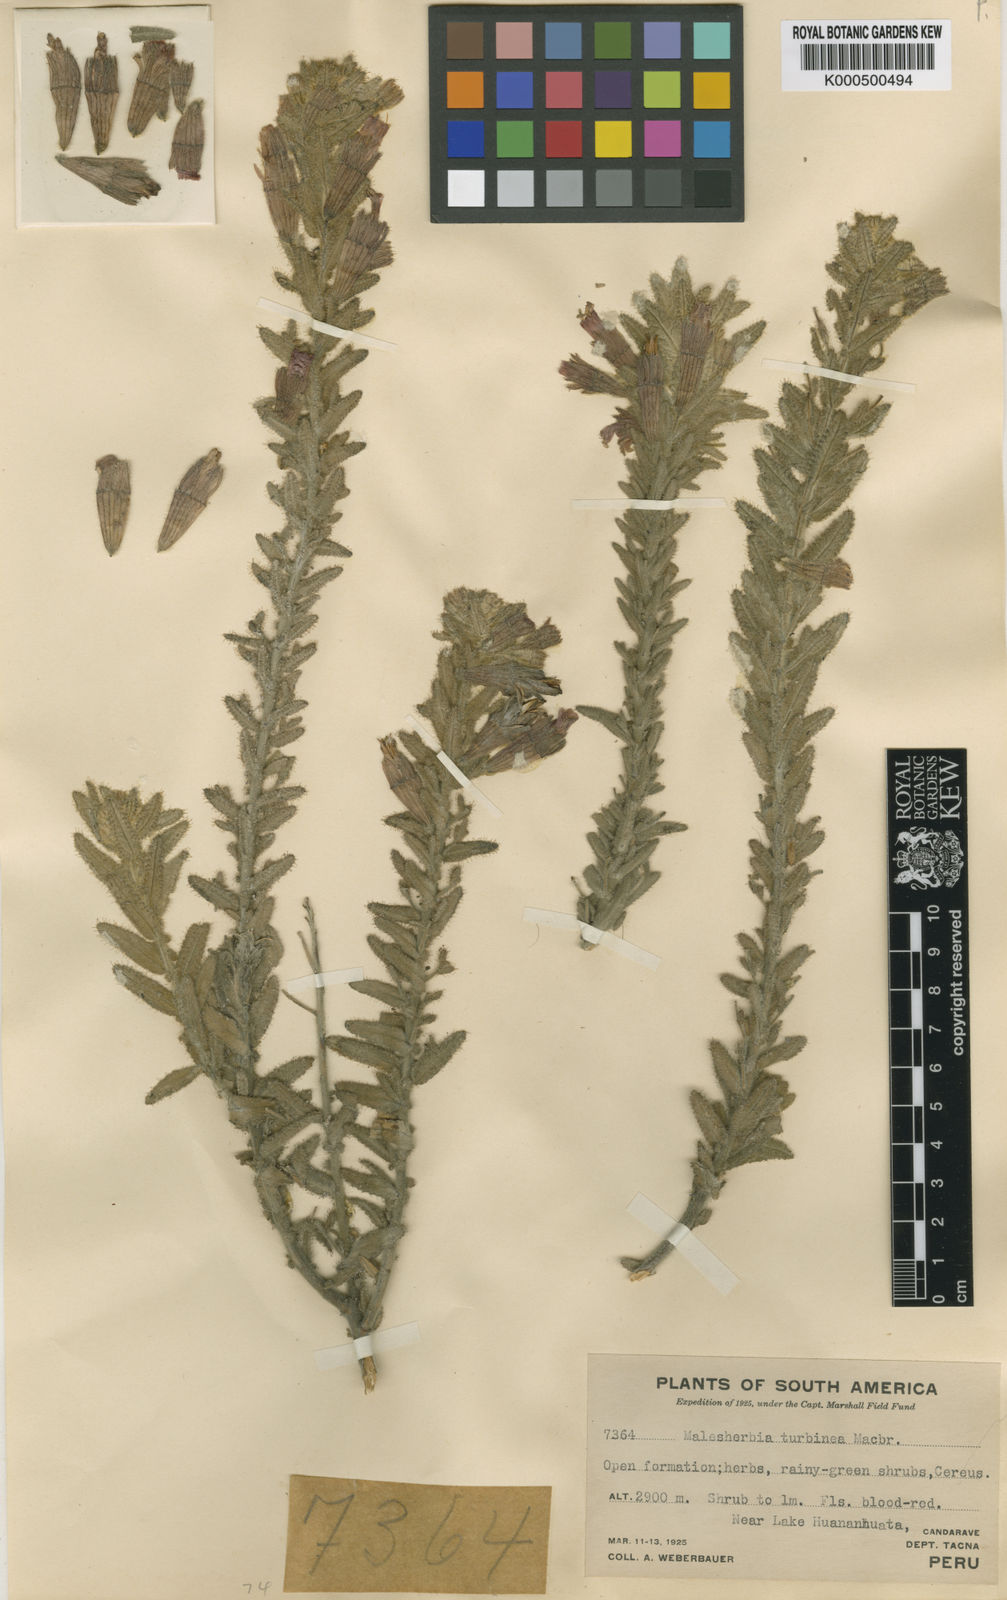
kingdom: Plantae
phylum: Tracheophyta
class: Magnoliopsida
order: Malpighiales
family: Malesherbiaceae
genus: Malesherbia
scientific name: Malesherbia turbinea
